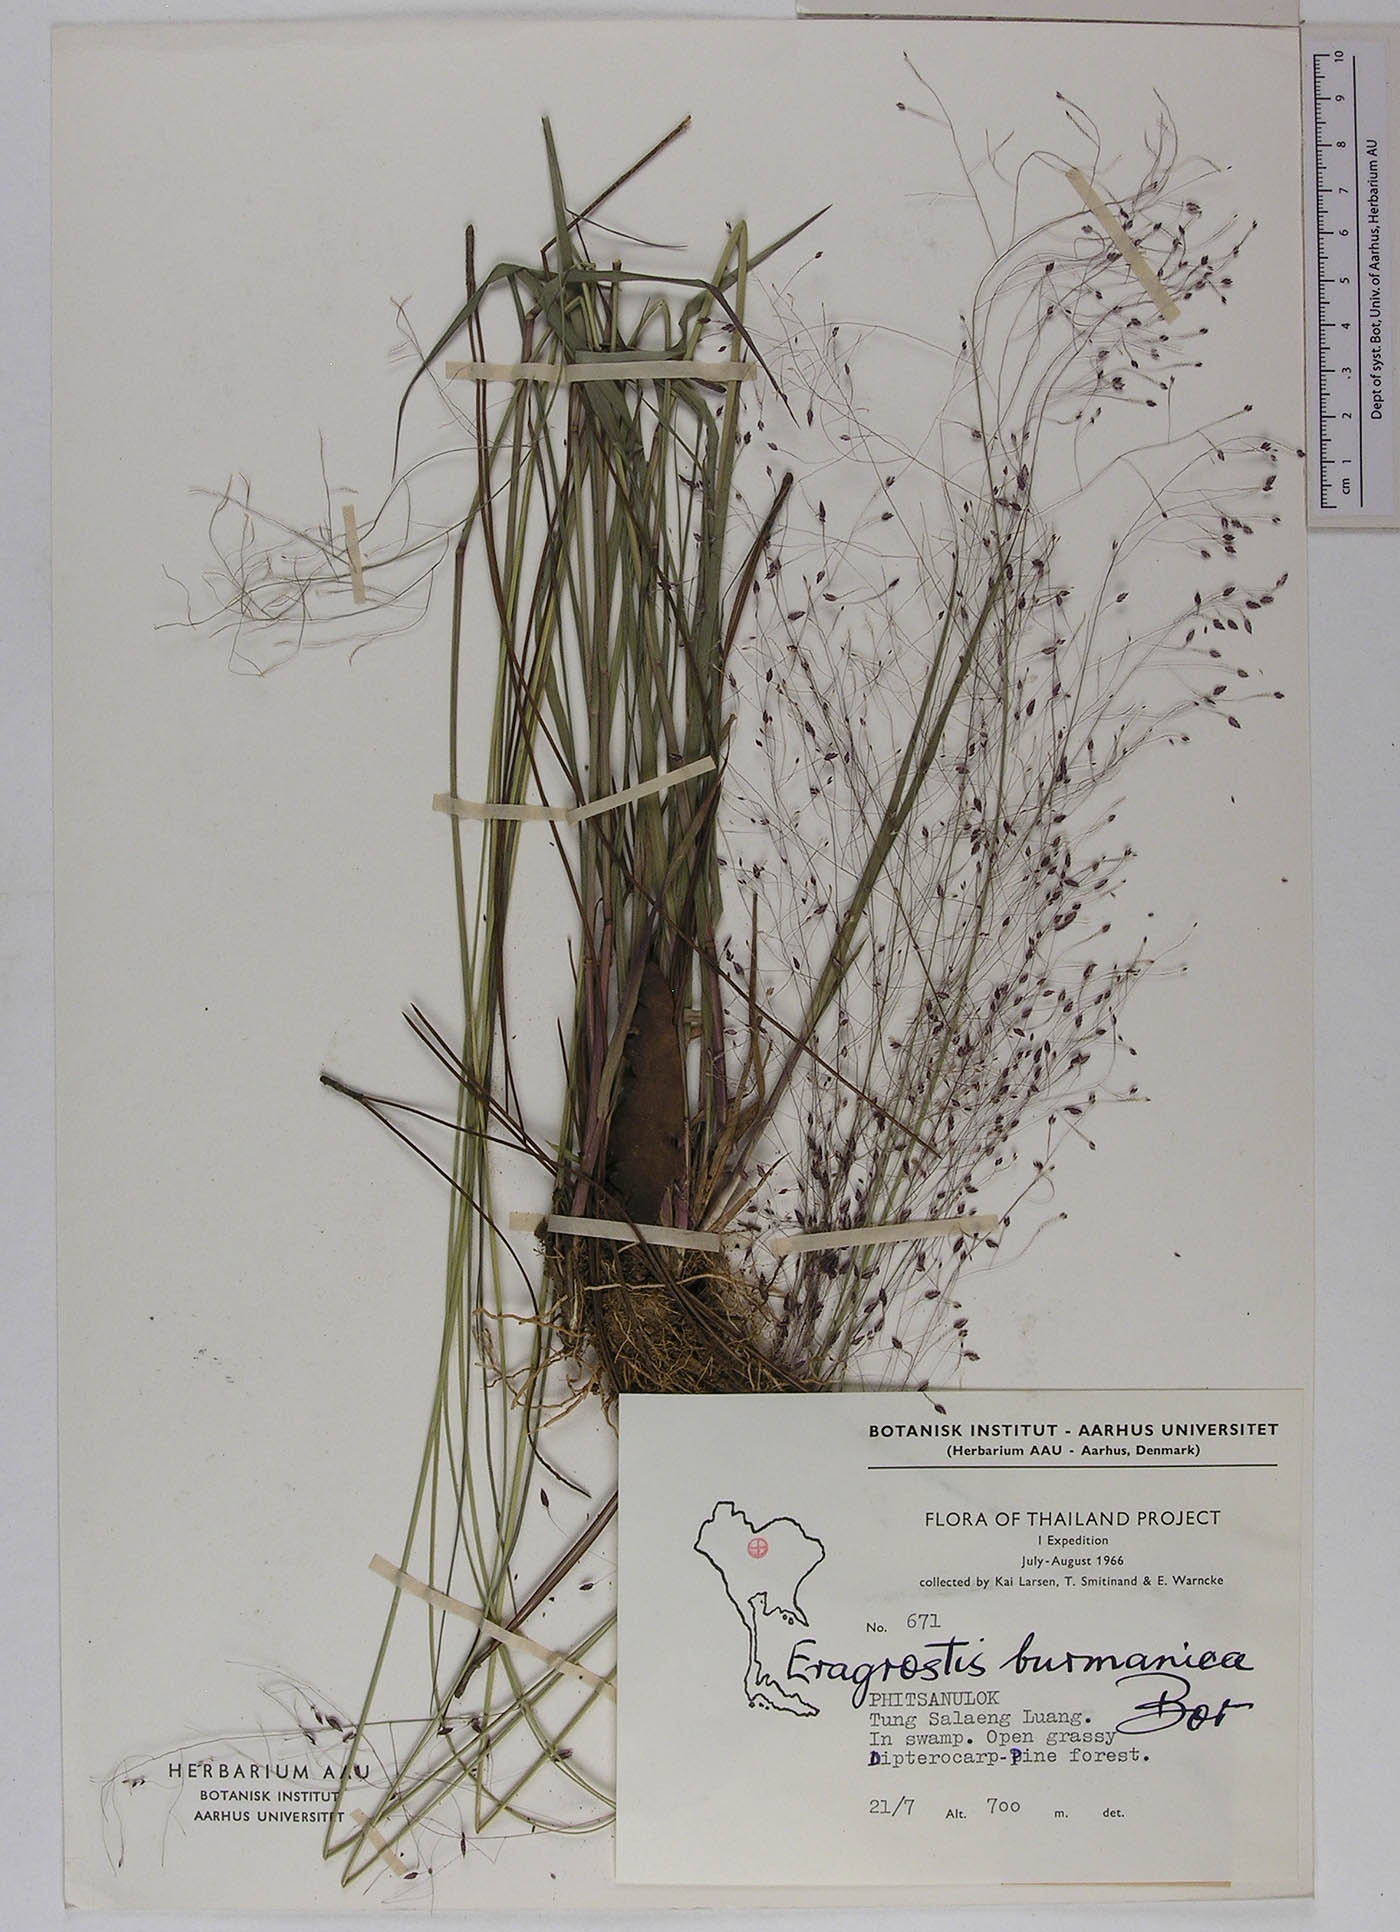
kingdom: Plantae
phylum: Tracheophyta
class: Liliopsida
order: Poales
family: Poaceae
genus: Eragrostis
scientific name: Eragrostis burmanica
